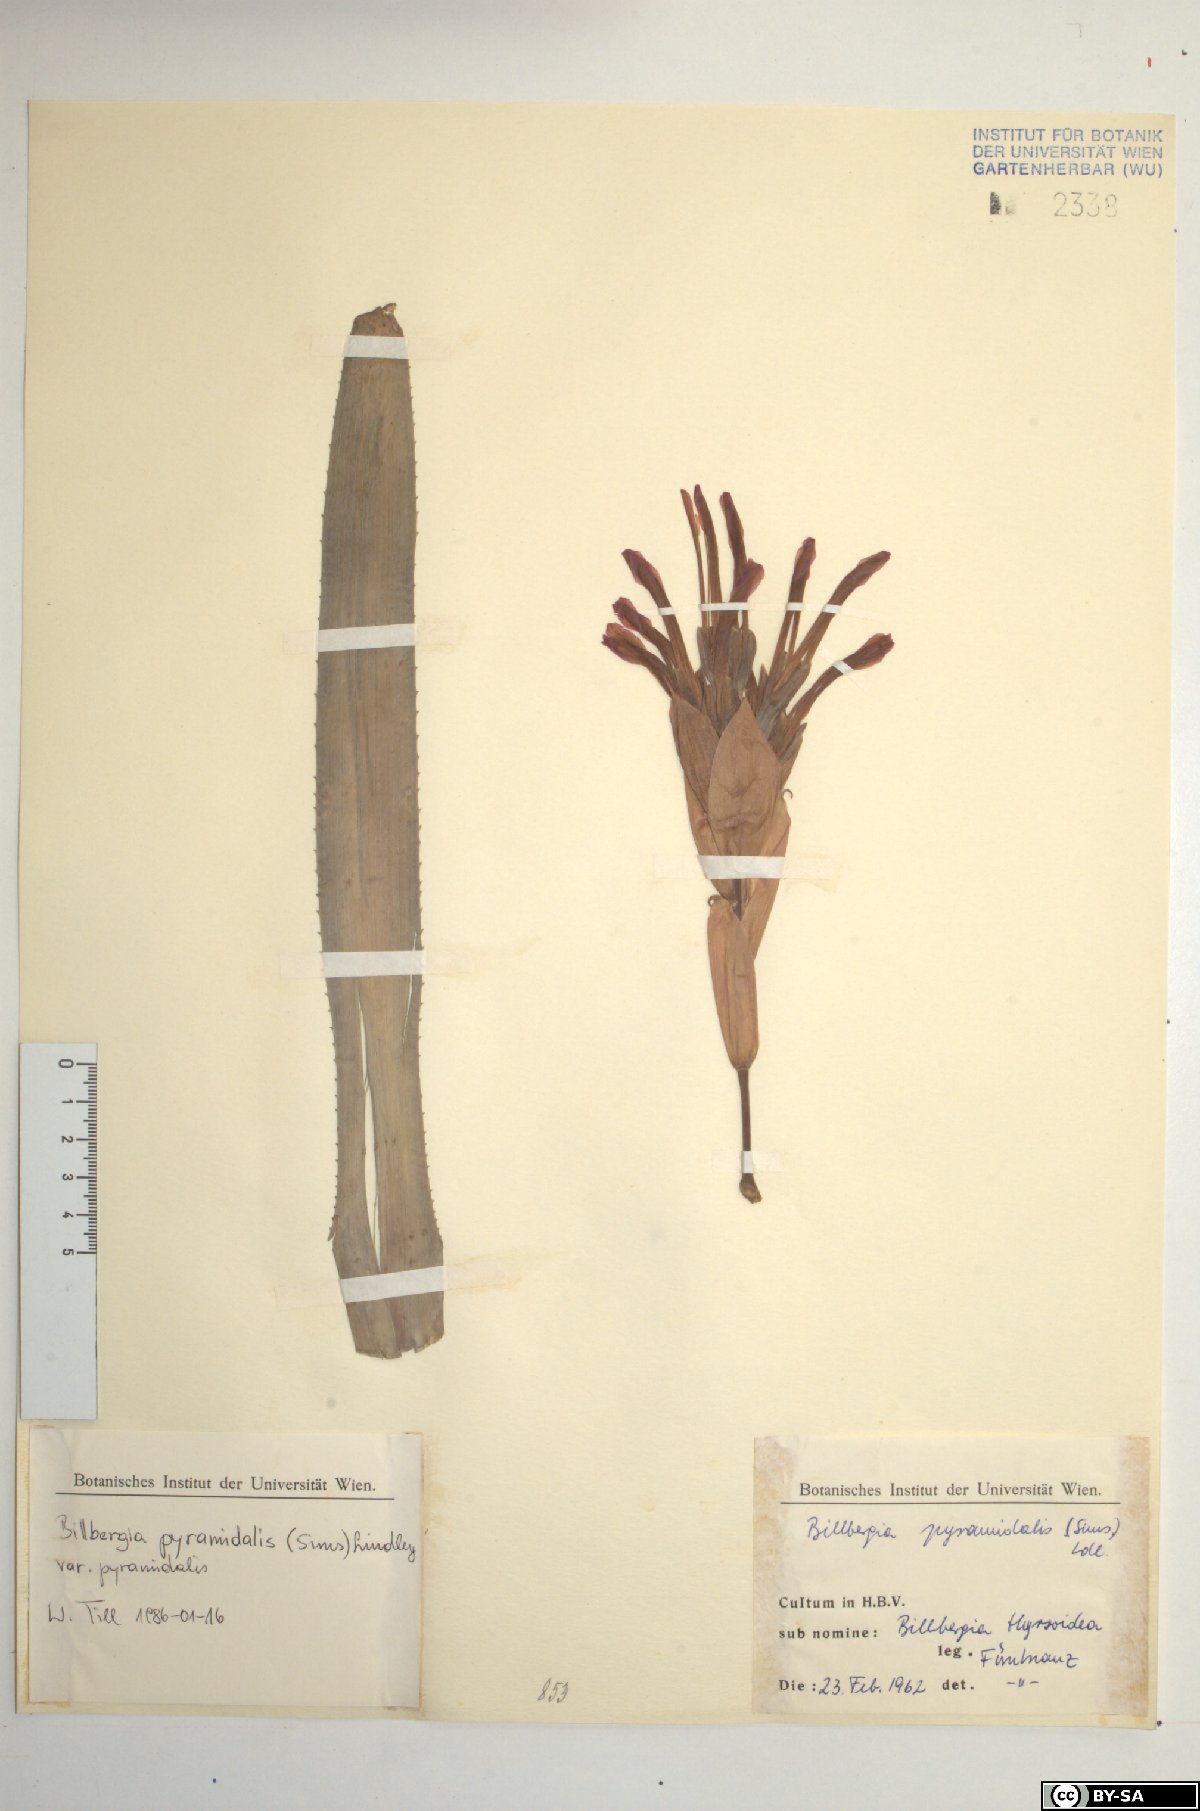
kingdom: Plantae
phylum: Tracheophyta
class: Liliopsida
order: Poales
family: Bromeliaceae
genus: Billbergia
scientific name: Billbergia pyramidalis
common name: Foolproofplant
